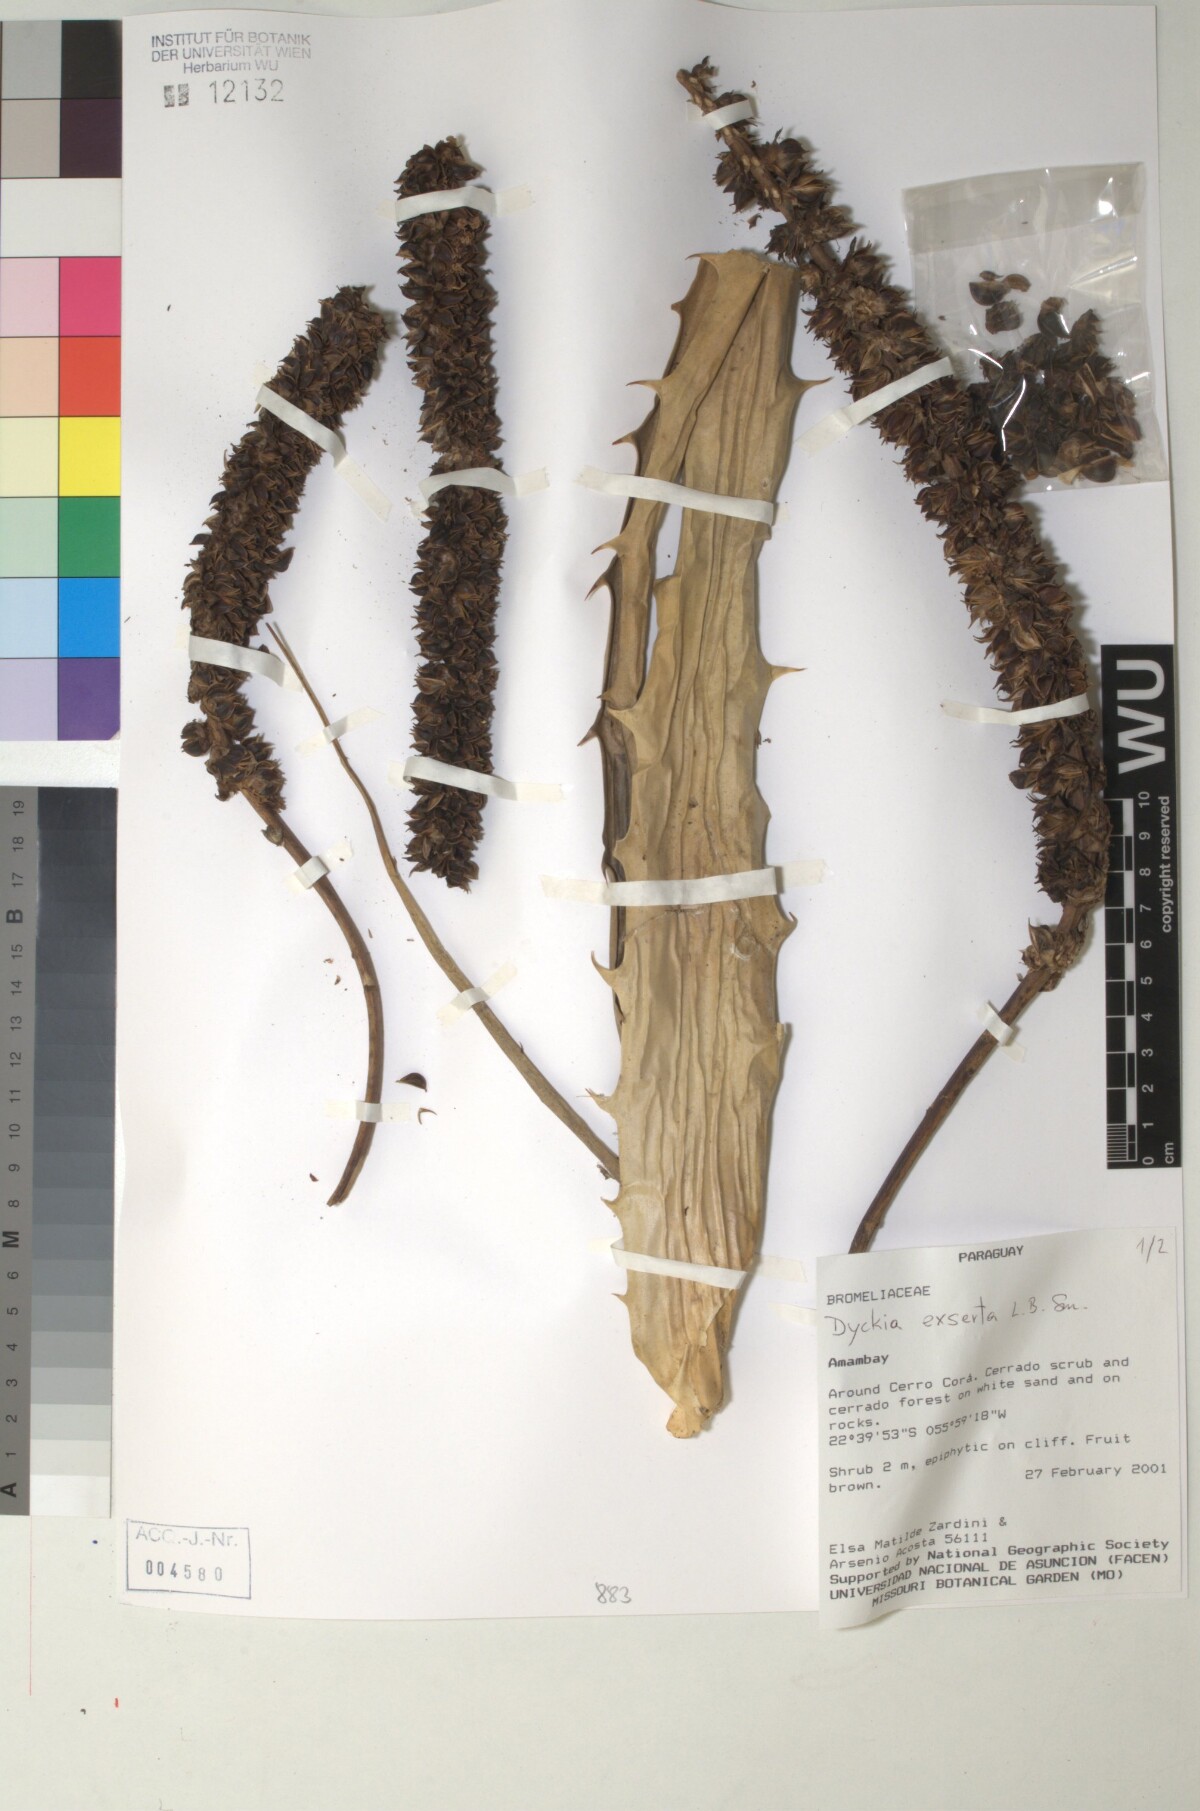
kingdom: Plantae
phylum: Tracheophyta
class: Liliopsida
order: Poales
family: Bromeliaceae
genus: Dyckia
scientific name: Dyckia exserta
